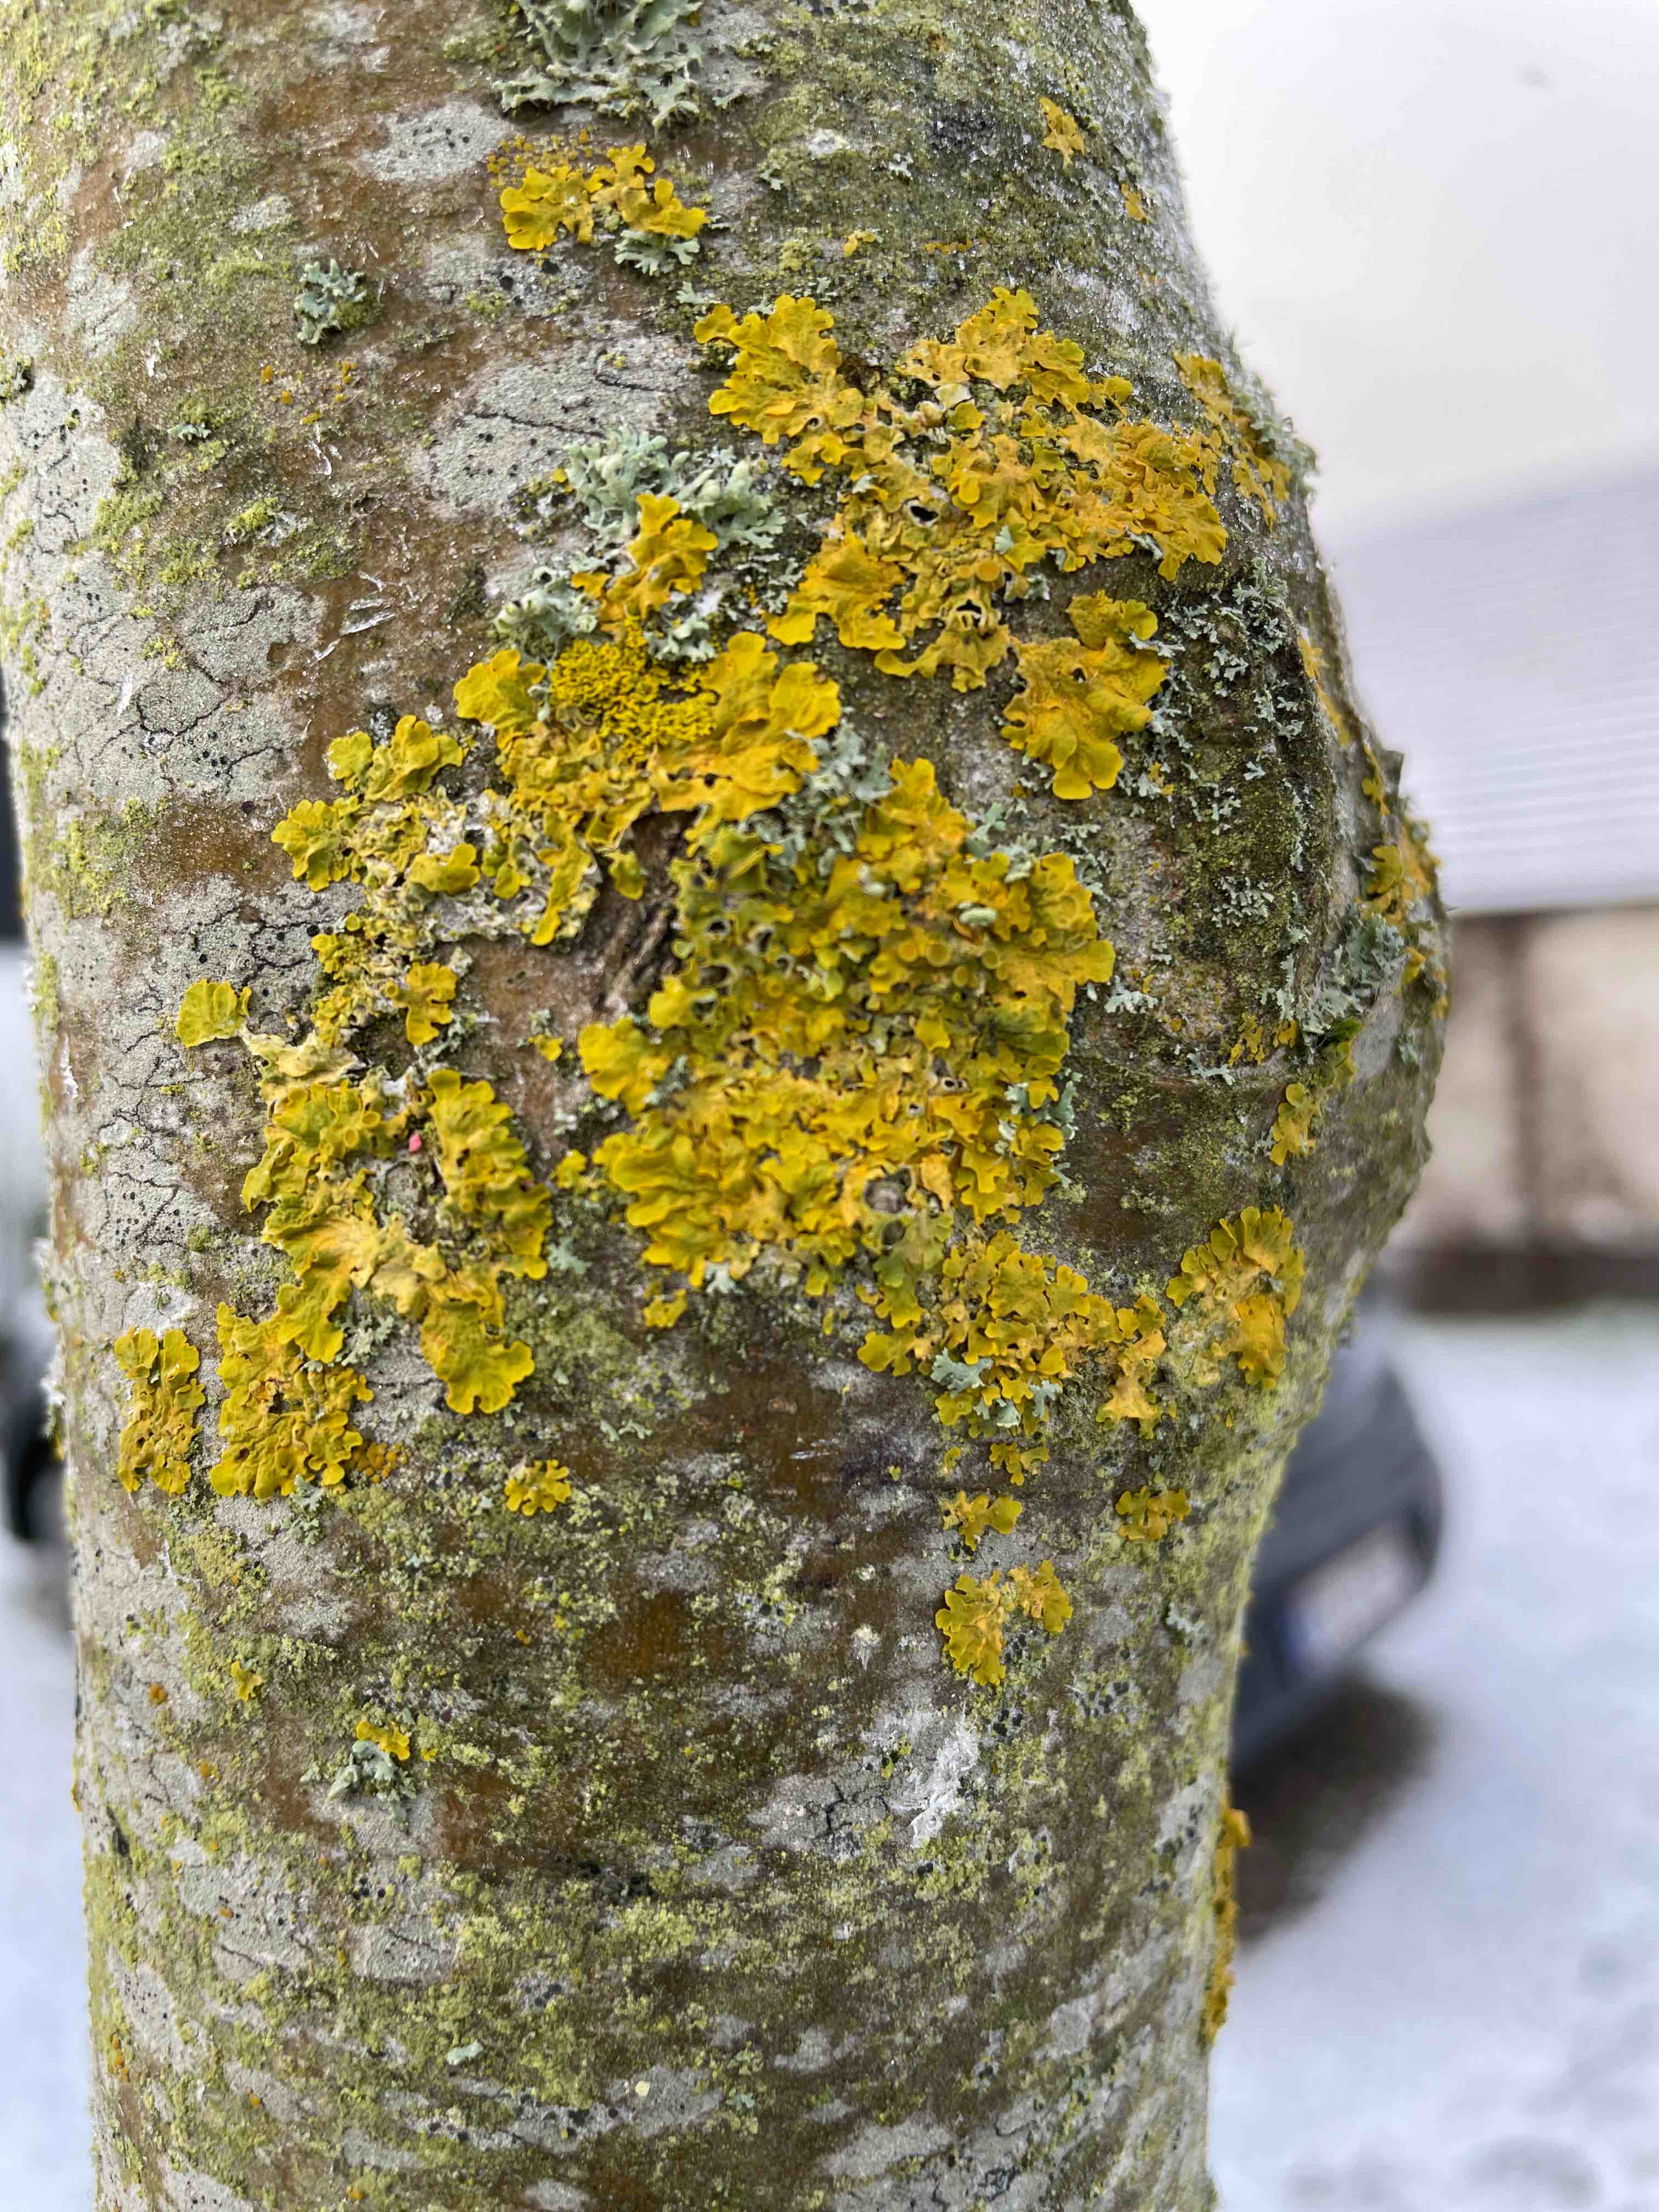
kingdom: Fungi
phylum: Ascomycota
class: Lecanoromycetes
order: Teloschistales
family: Teloschistaceae
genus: Xanthoria
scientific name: Xanthoria parietina
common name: almindelig væggelav
